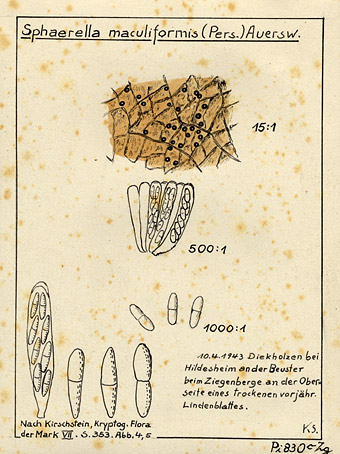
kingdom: Fungi
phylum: Ascomycota
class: Dothideomycetes
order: Mycosphaerellales
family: Mycosphaerellaceae
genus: Mycosphaerella
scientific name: Mycosphaerella punctiformis
